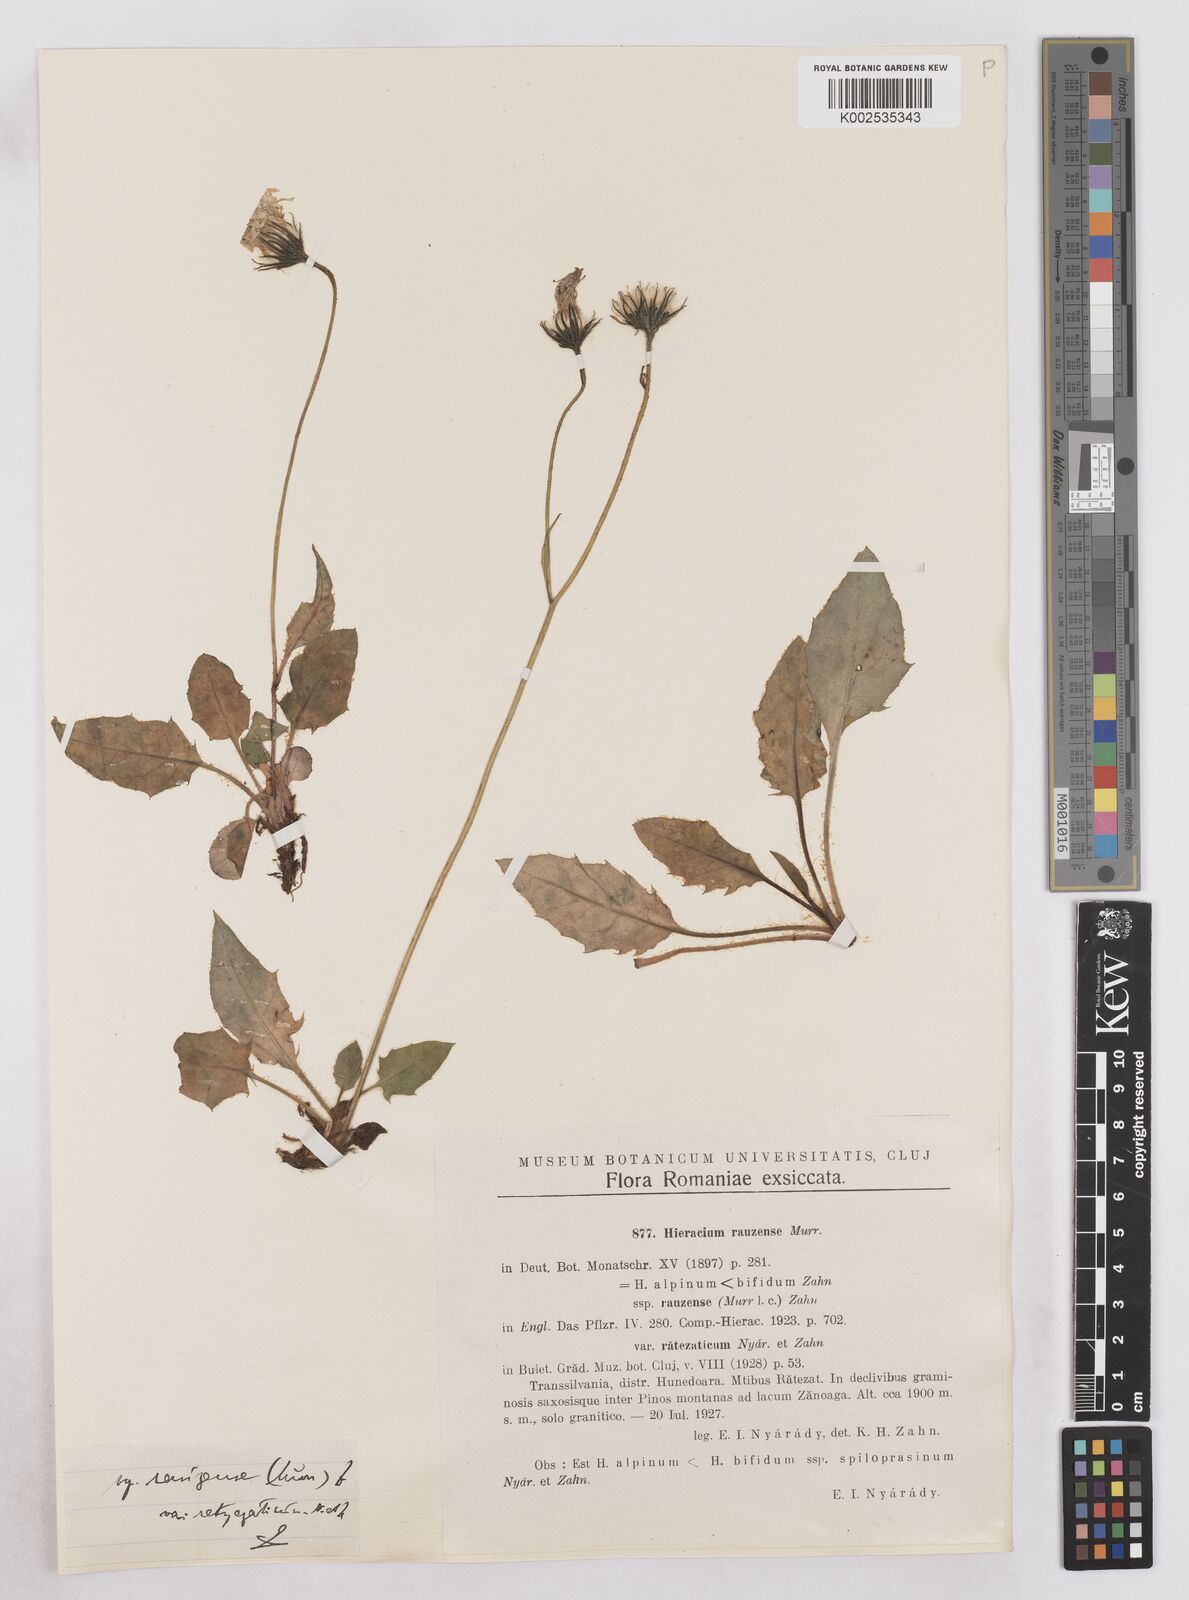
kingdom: Plantae
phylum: Tracheophyta
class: Magnoliopsida
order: Asterales
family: Asteraceae
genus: Hieracium
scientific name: Hieracium conspurcans
